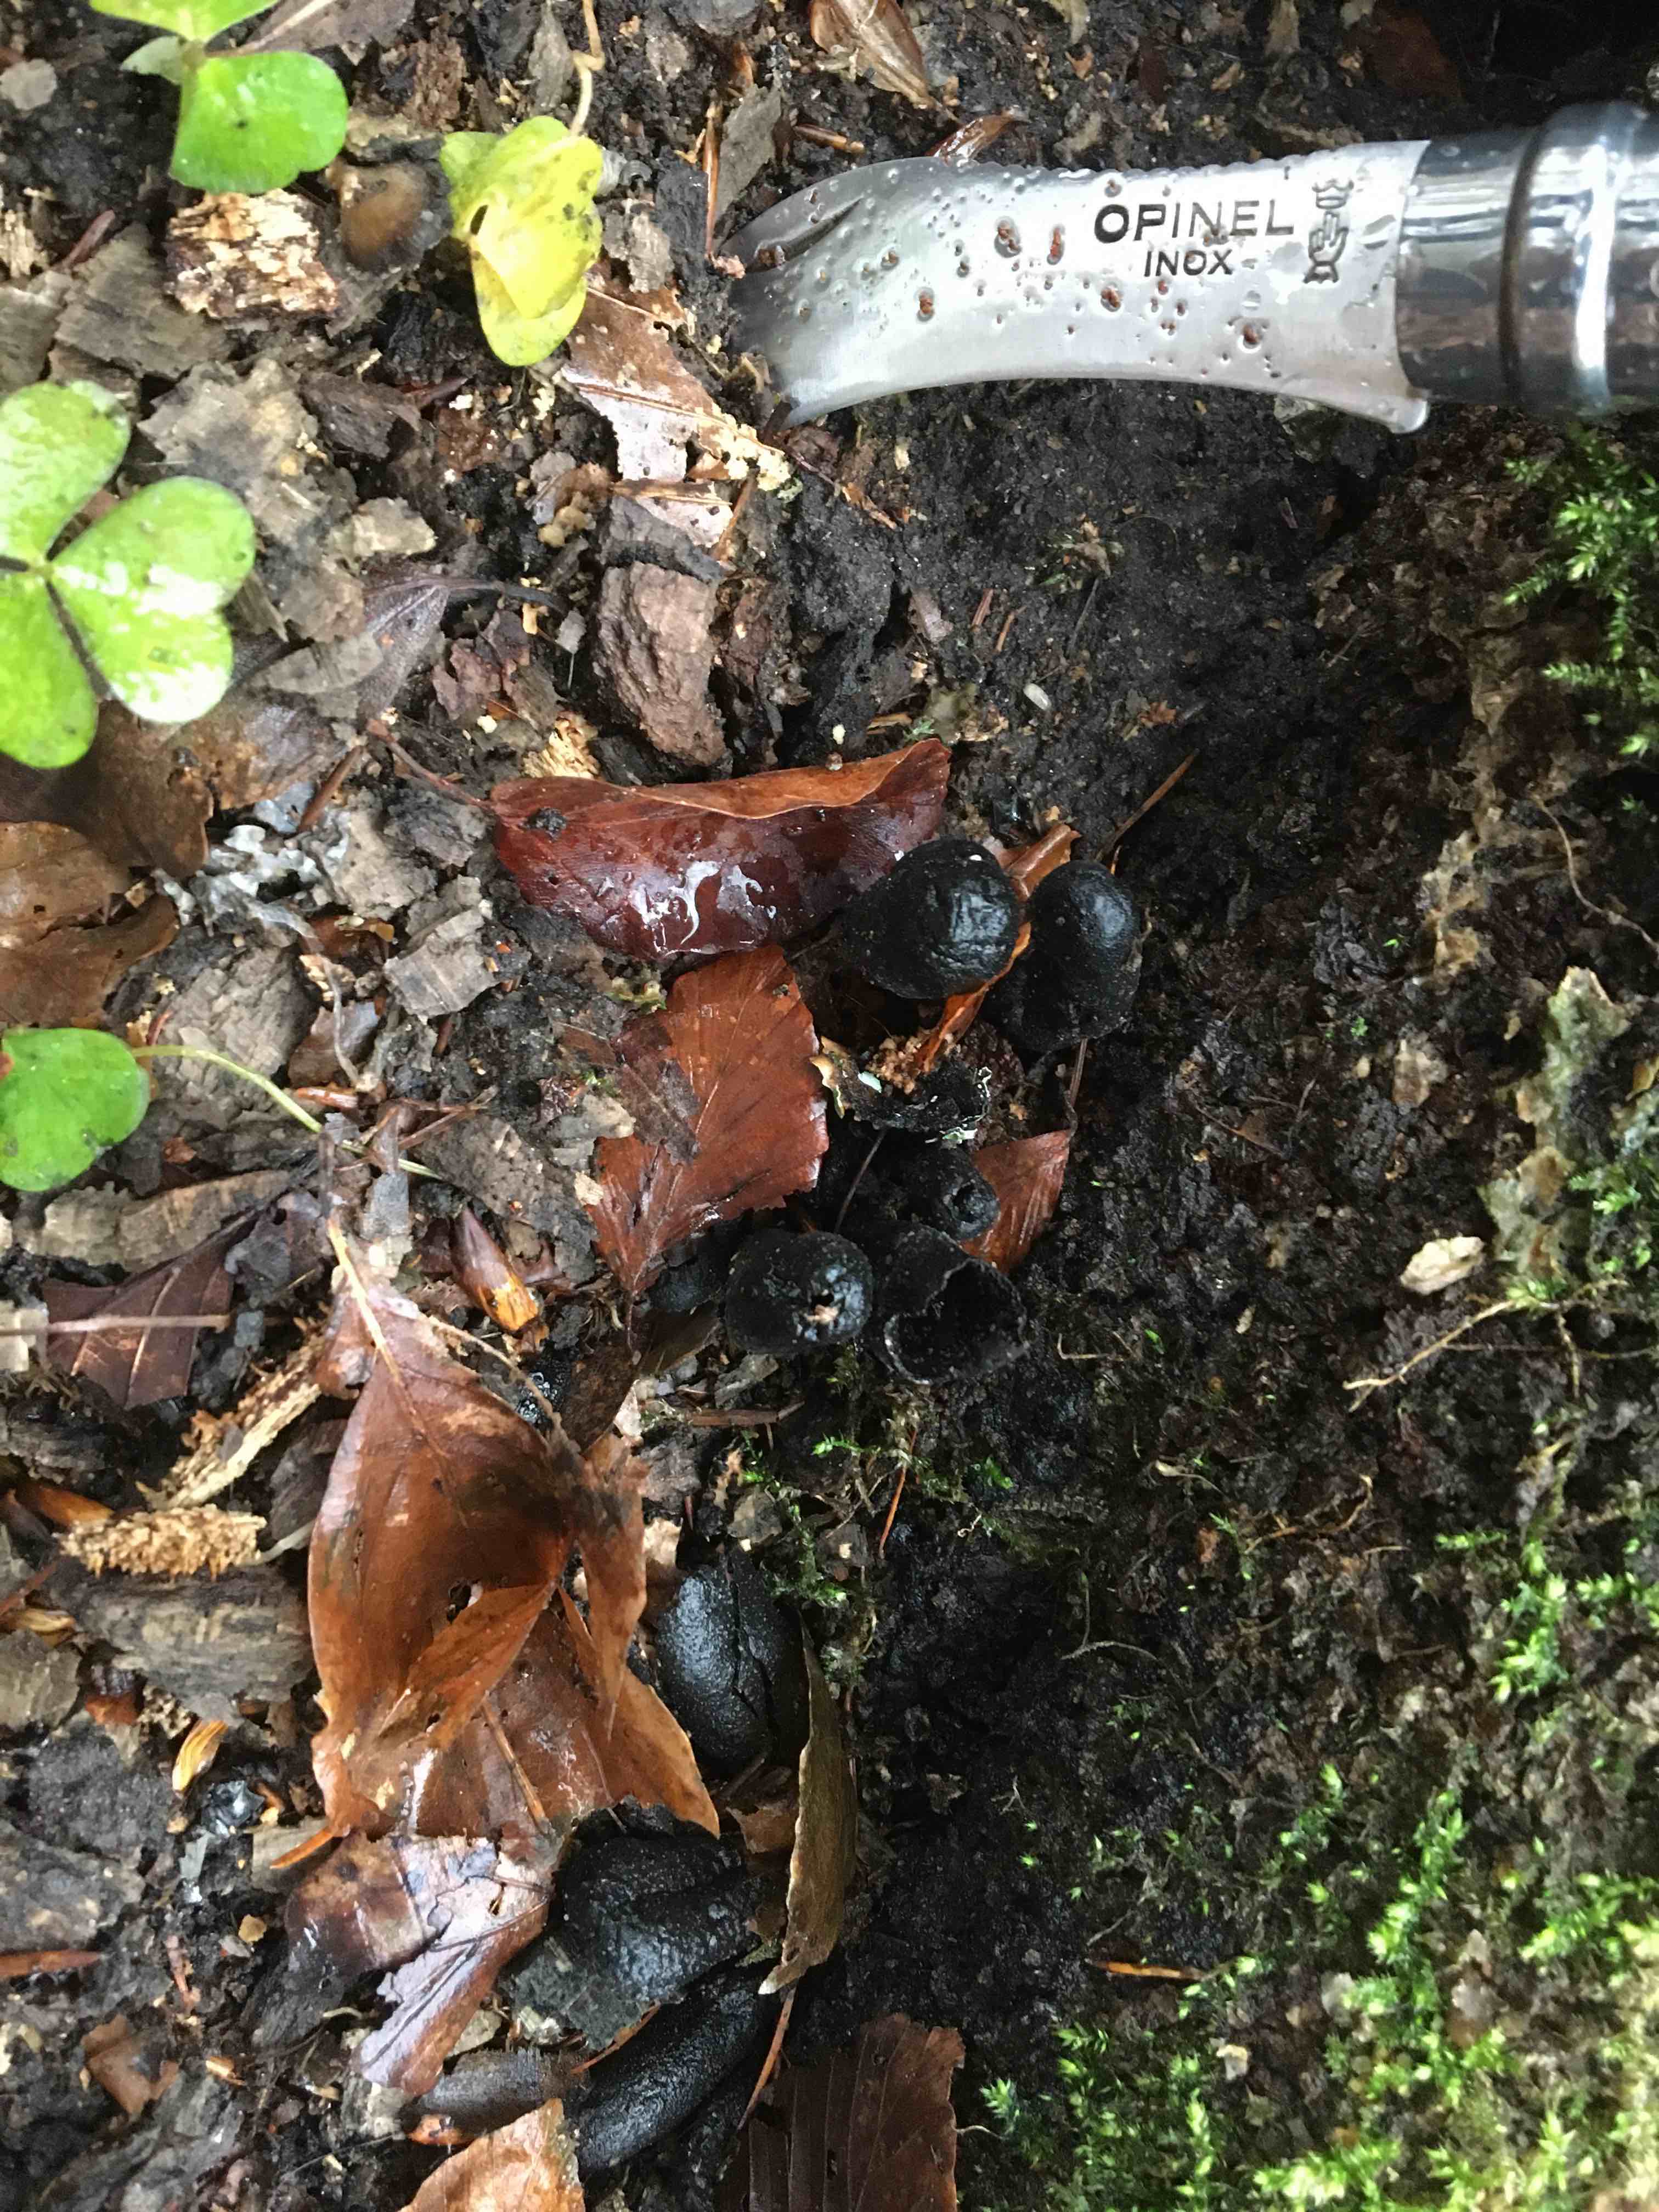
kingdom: Fungi
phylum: Ascomycota
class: Sordariomycetes
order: Xylariales
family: Xylariaceae
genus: Xylaria
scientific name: Xylaria polymorpha
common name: kølle-stødsvamp
